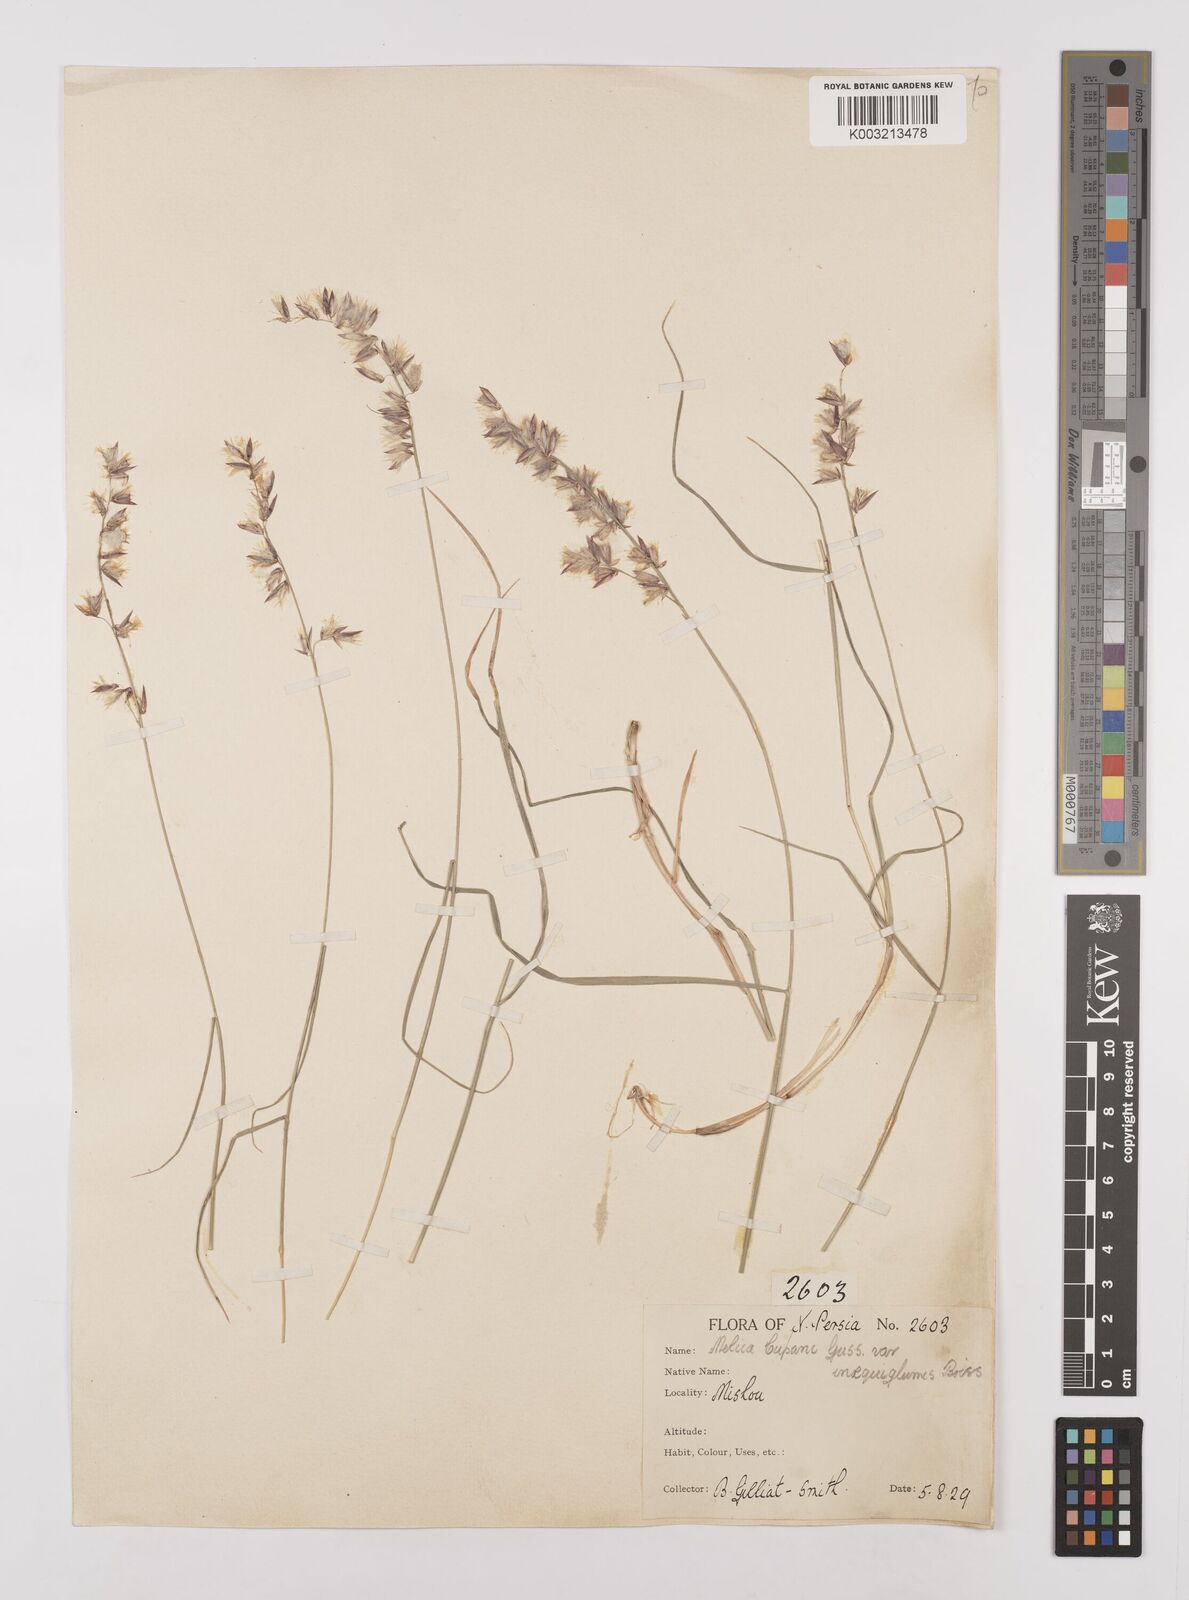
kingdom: Plantae
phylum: Tracheophyta
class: Liliopsida
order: Poales
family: Poaceae
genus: Melica
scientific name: Melica persica
